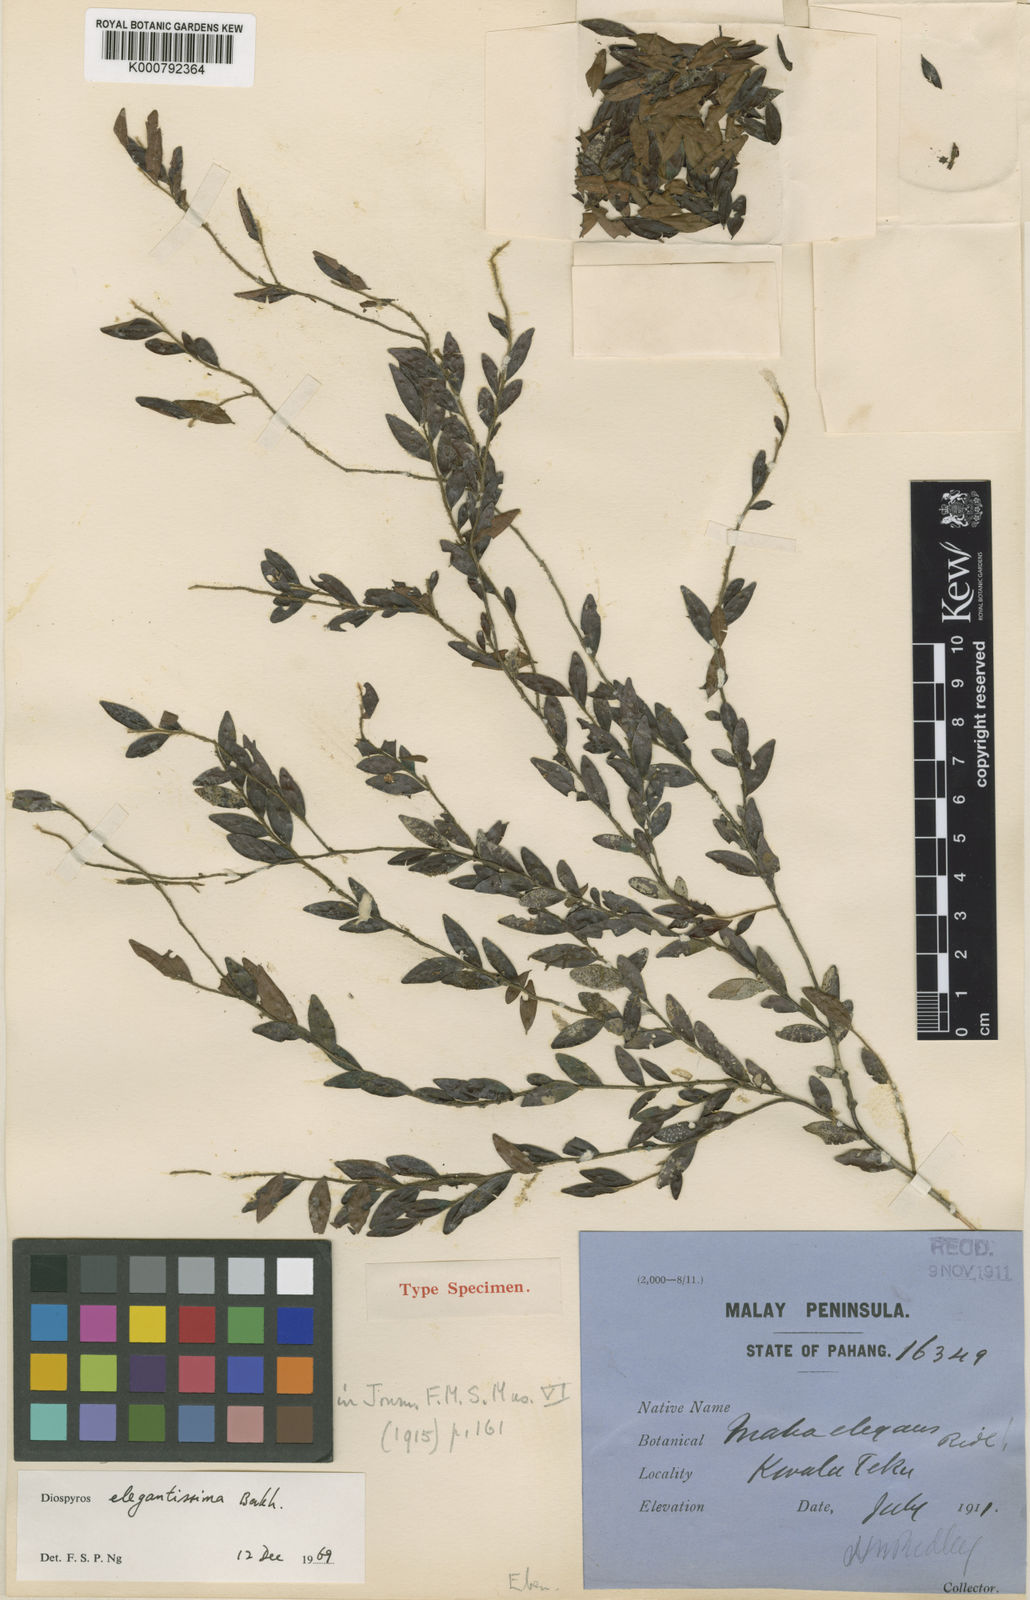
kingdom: Plantae
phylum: Tracheophyta
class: Magnoliopsida
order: Ericales
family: Ebenaceae
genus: Diospyros
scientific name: Diospyros buxifolia
